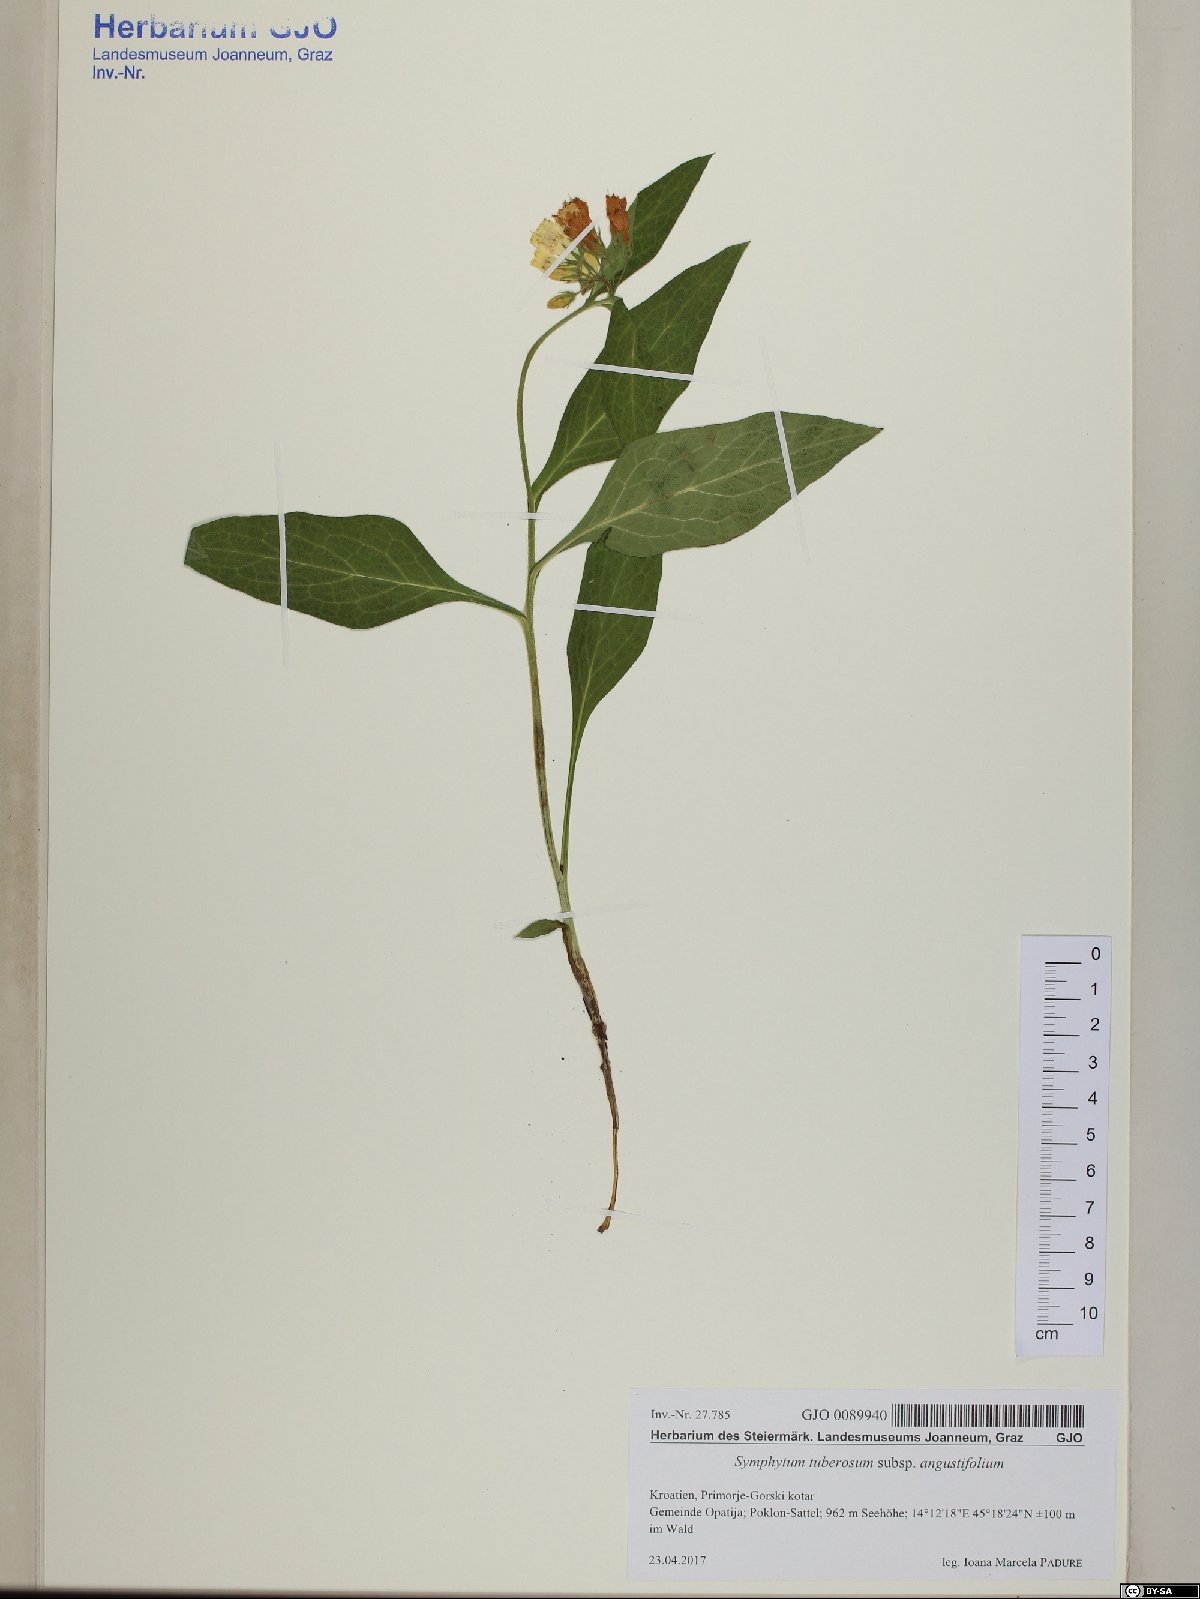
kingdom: Plantae
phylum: Tracheophyta
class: Magnoliopsida
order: Boraginales
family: Boraginaceae
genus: Symphytum
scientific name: Symphytum tuberosum
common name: Tuberous comfrey
